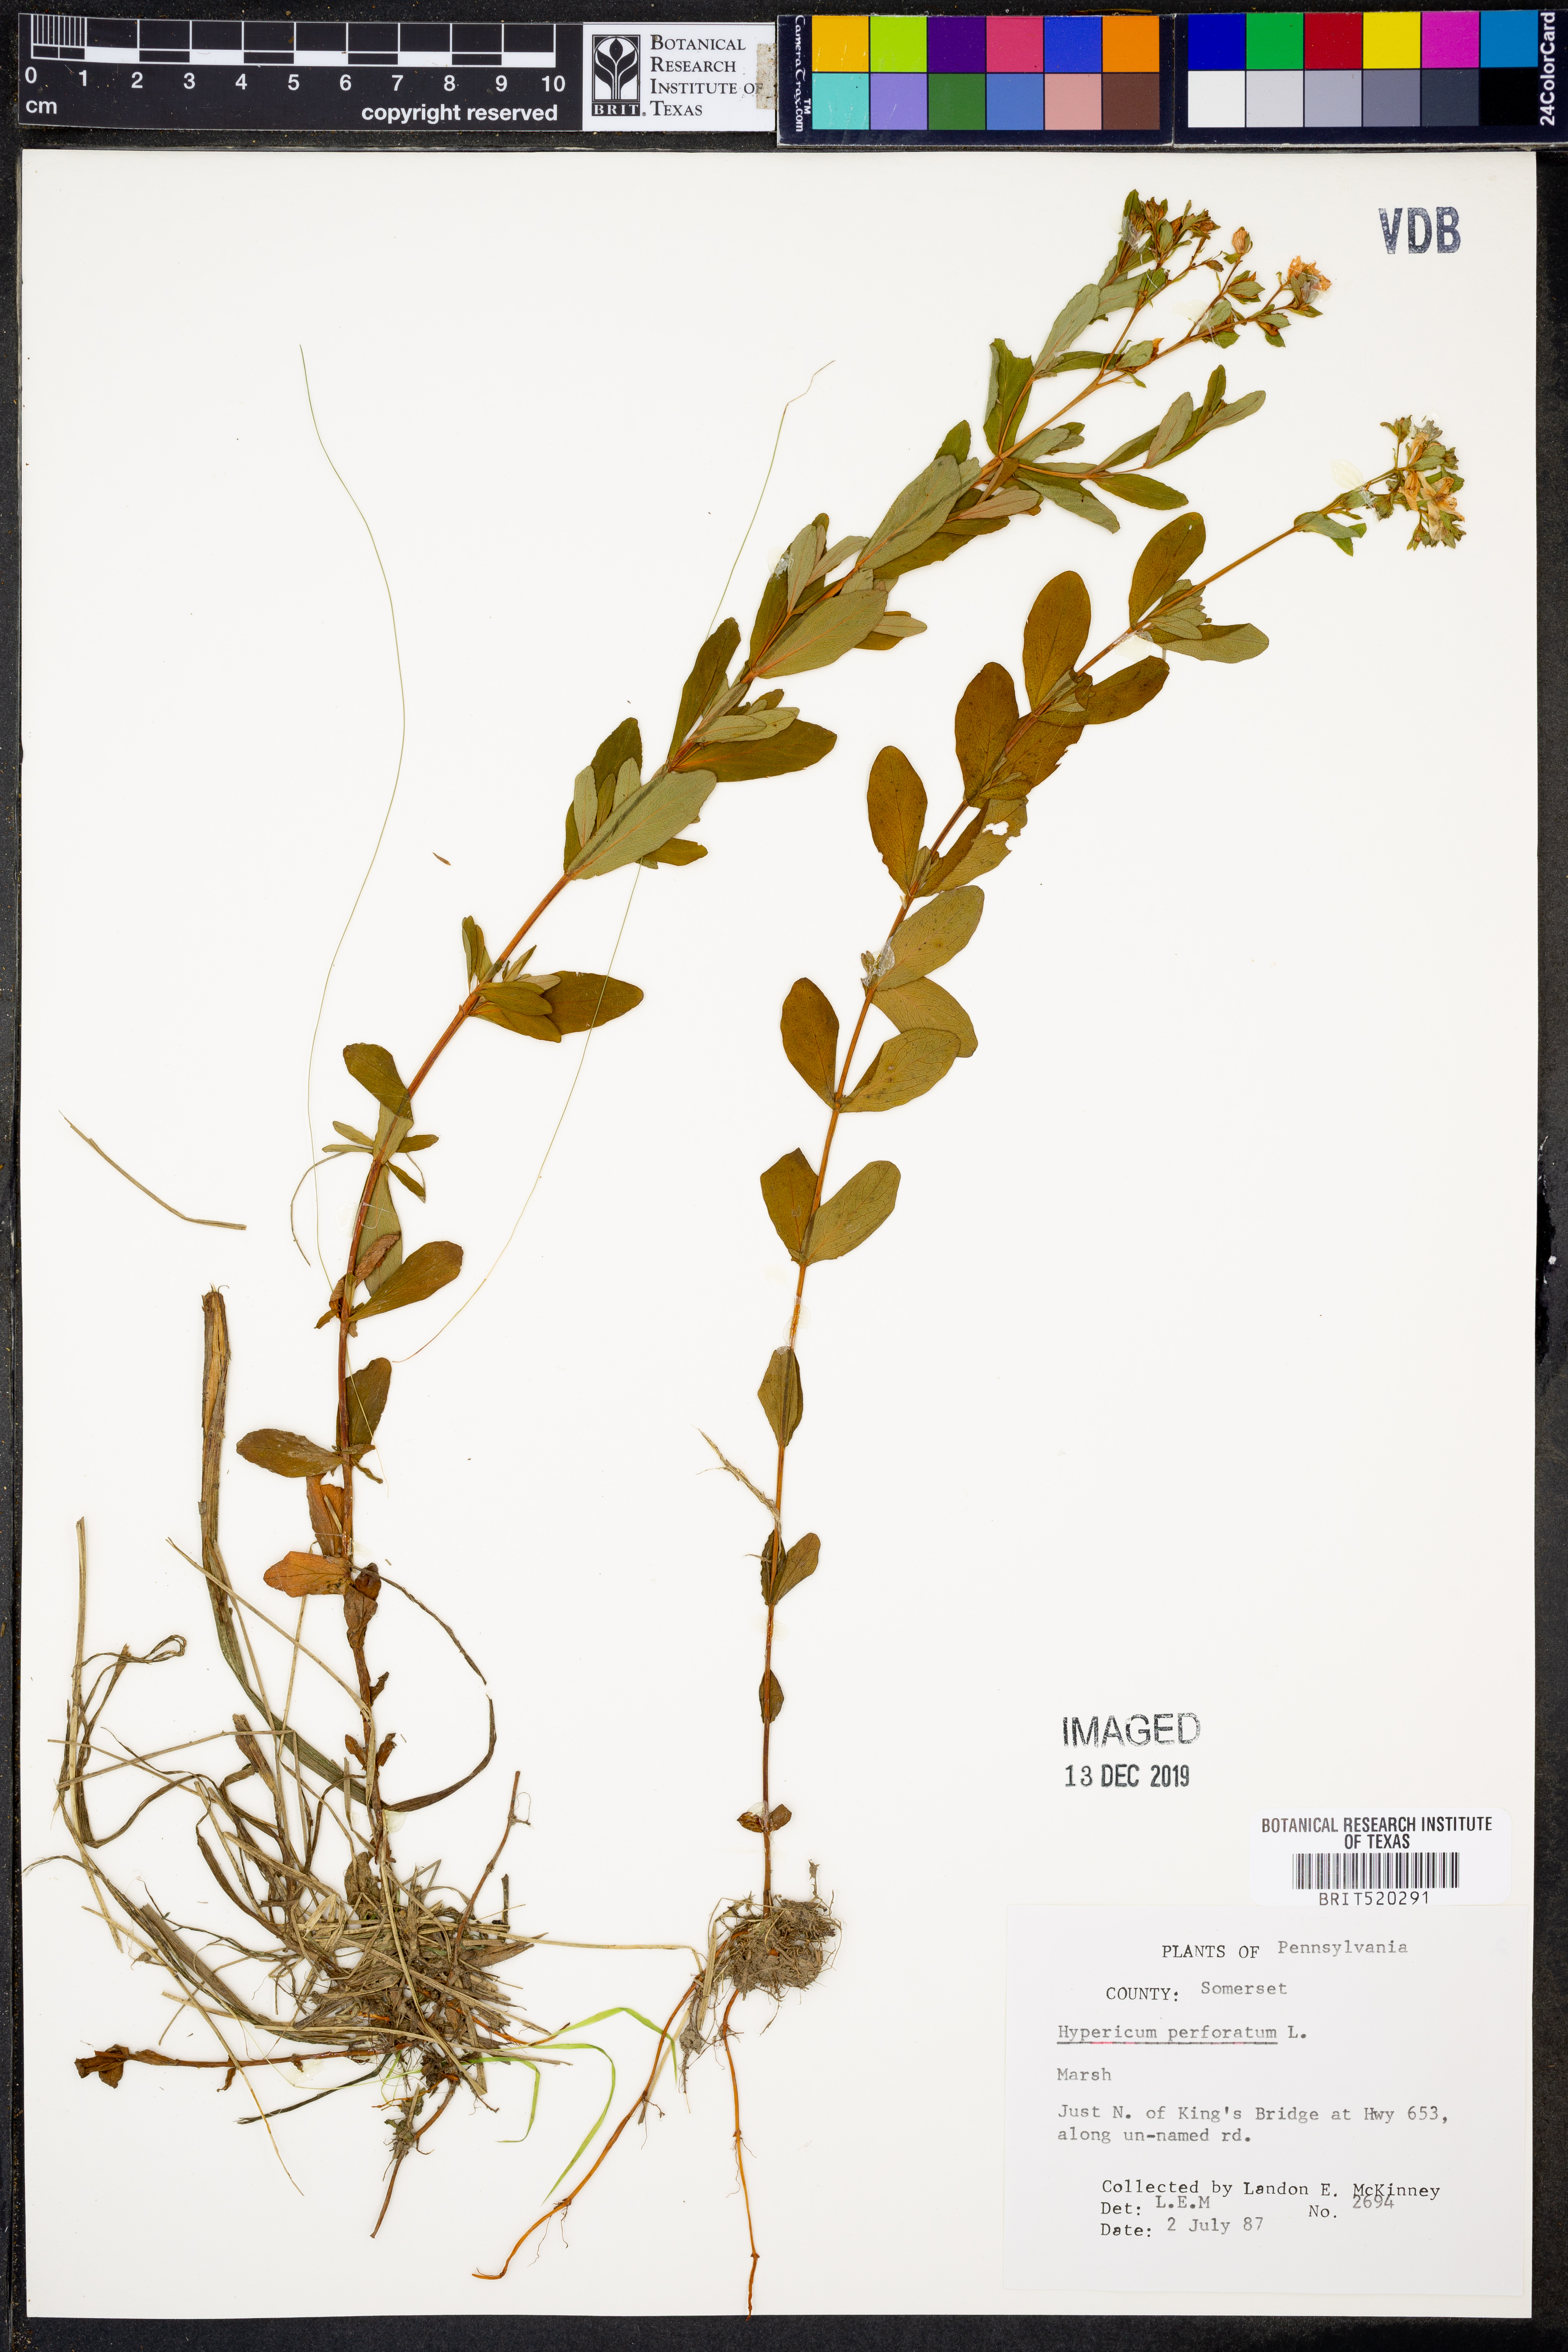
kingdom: Plantae
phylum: Tracheophyta
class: Magnoliopsida
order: Malpighiales
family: Hypericaceae
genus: Hypericum
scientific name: Hypericum perforatum
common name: Common st. johnswort
